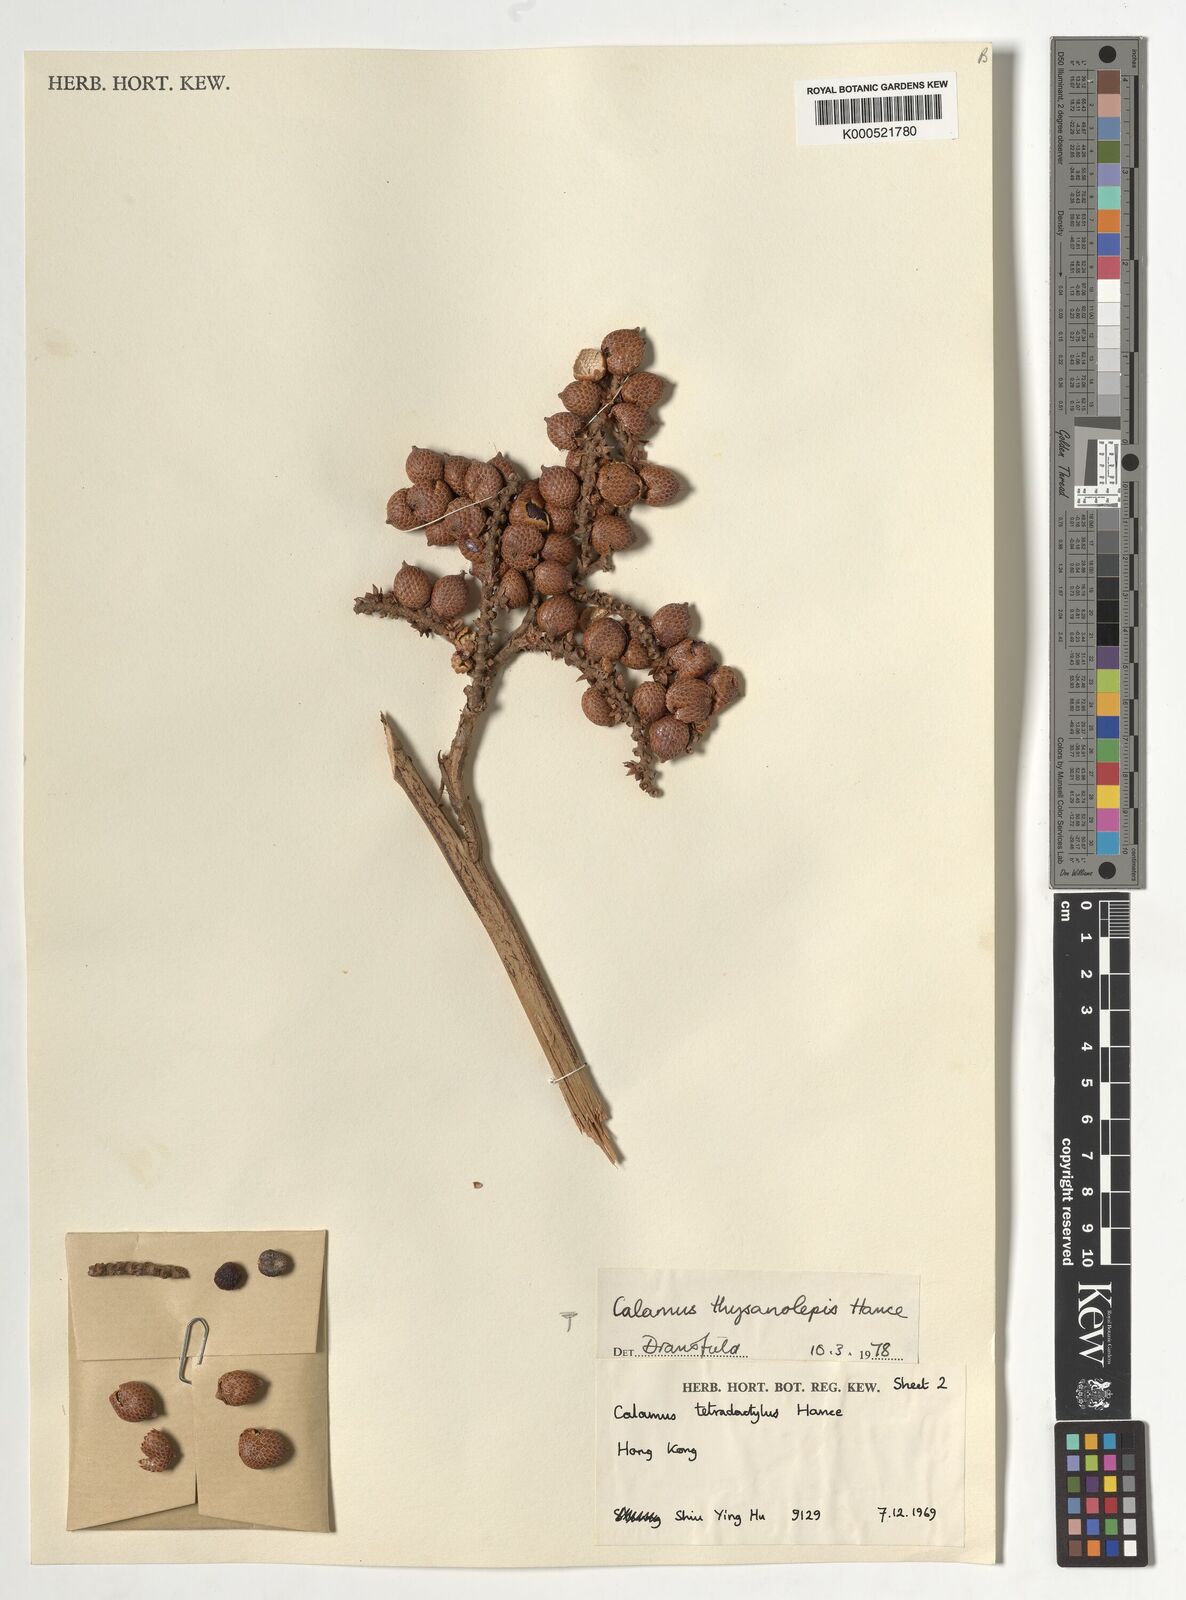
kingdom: Plantae
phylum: Tracheophyta
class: Liliopsida
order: Arecales
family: Arecaceae
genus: Calamus
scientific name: Calamus thysanolepis
